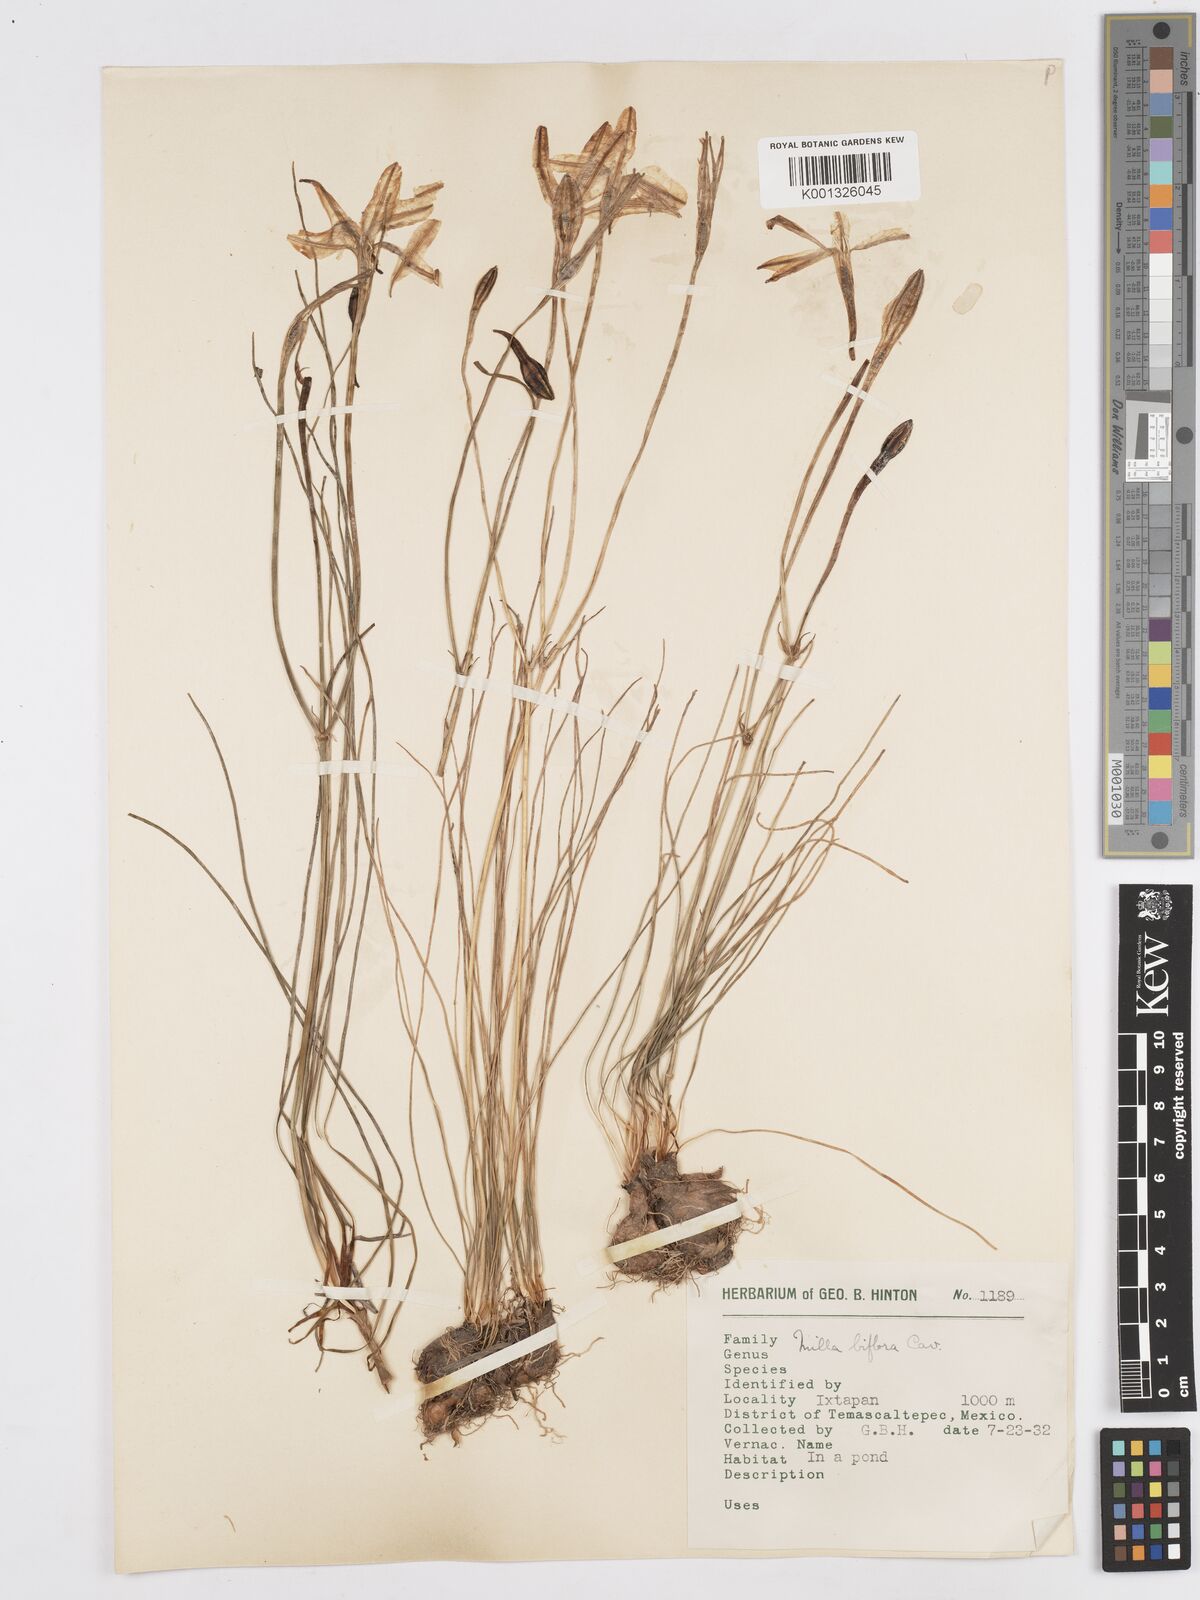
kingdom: Plantae
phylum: Tracheophyta
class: Liliopsida
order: Asparagales
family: Asparagaceae
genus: Milla
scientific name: Milla biflora
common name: Mexican-star
